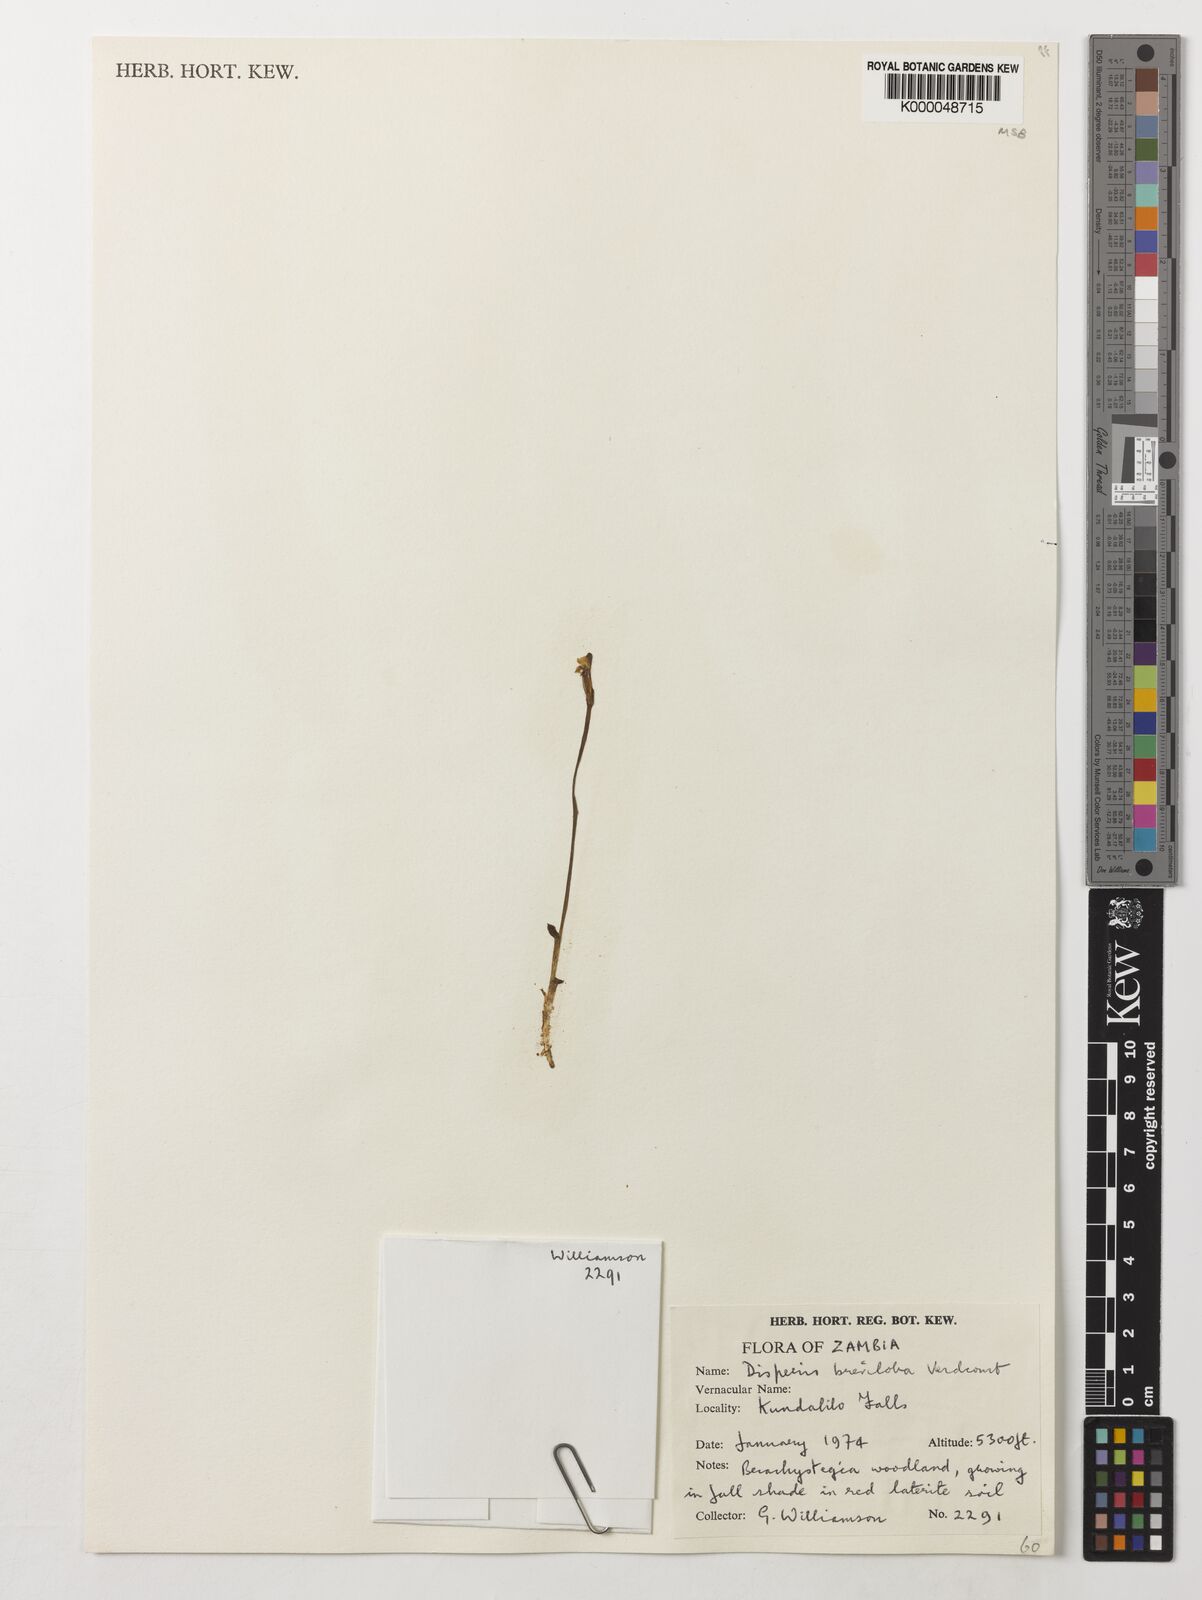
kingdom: Plantae
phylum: Tracheophyta
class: Liliopsida
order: Asparagales
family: Orchidaceae
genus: Disperis
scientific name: Disperis breviloba
